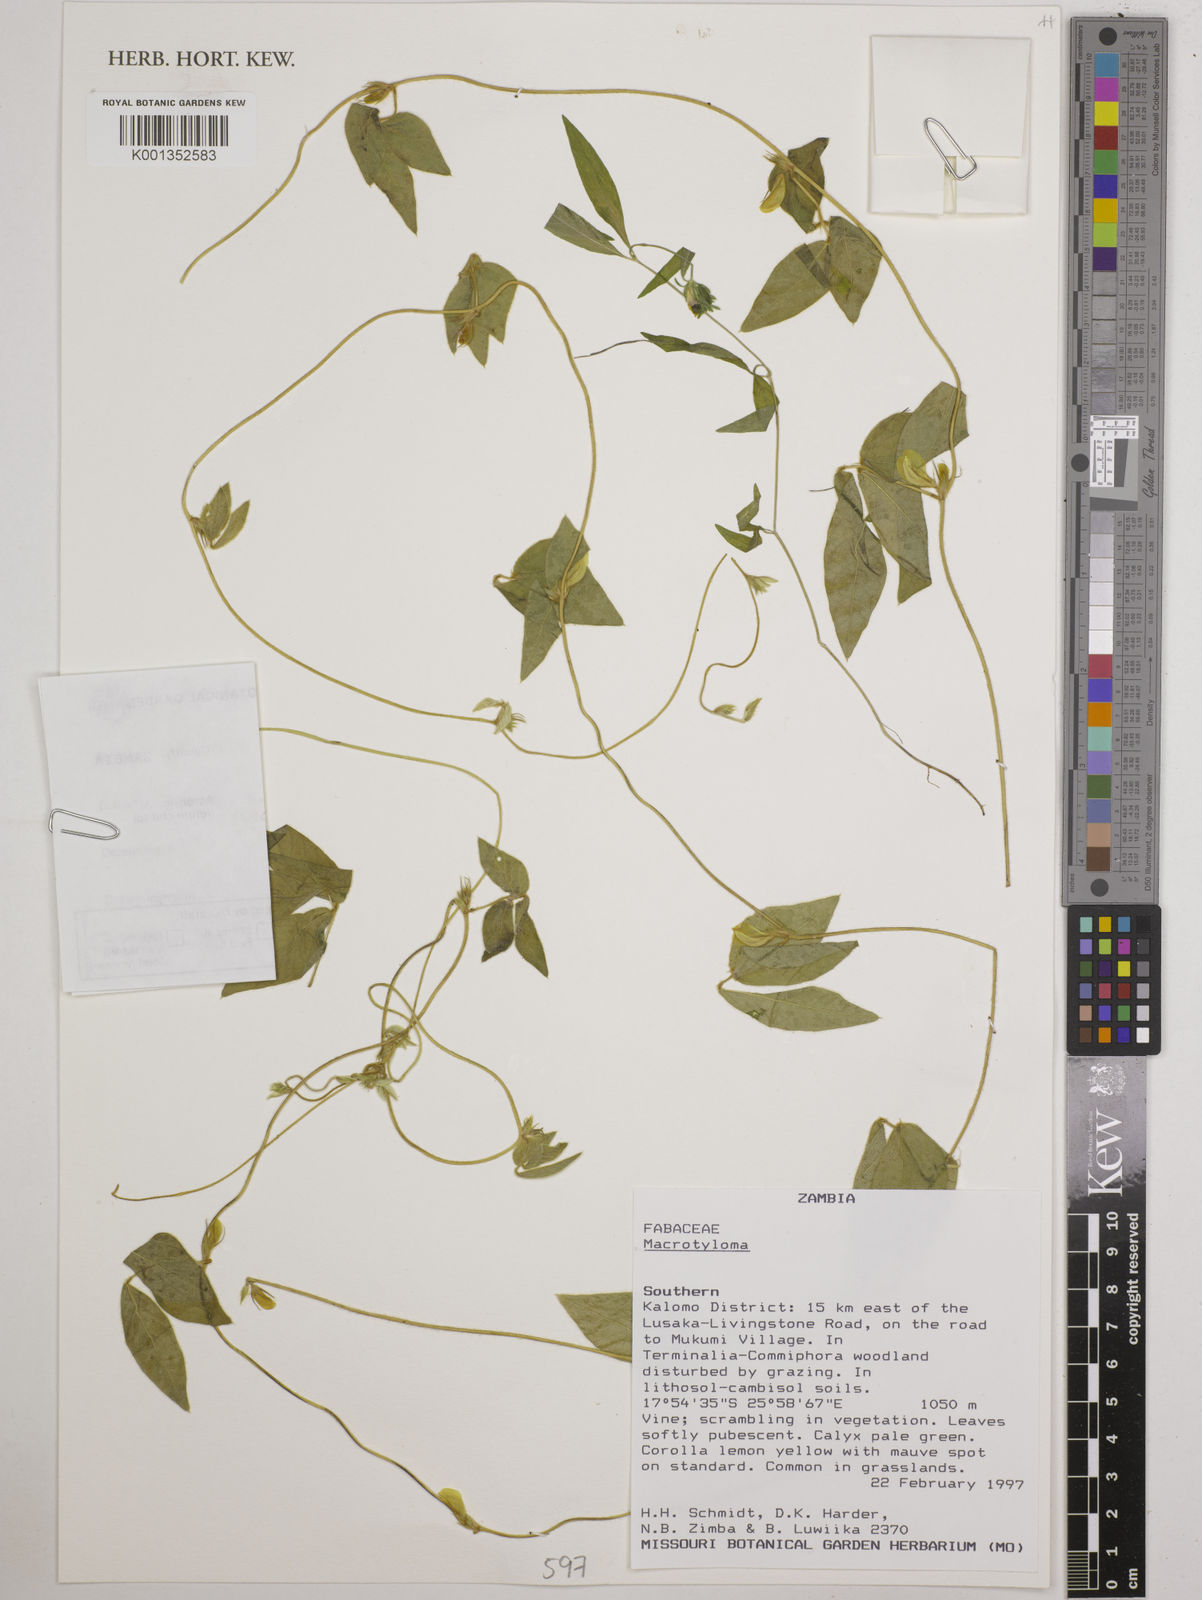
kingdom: Plantae
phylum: Tracheophyta
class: Magnoliopsida
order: Fabales
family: Fabaceae
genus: Macrotyloma
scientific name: Macrotyloma
